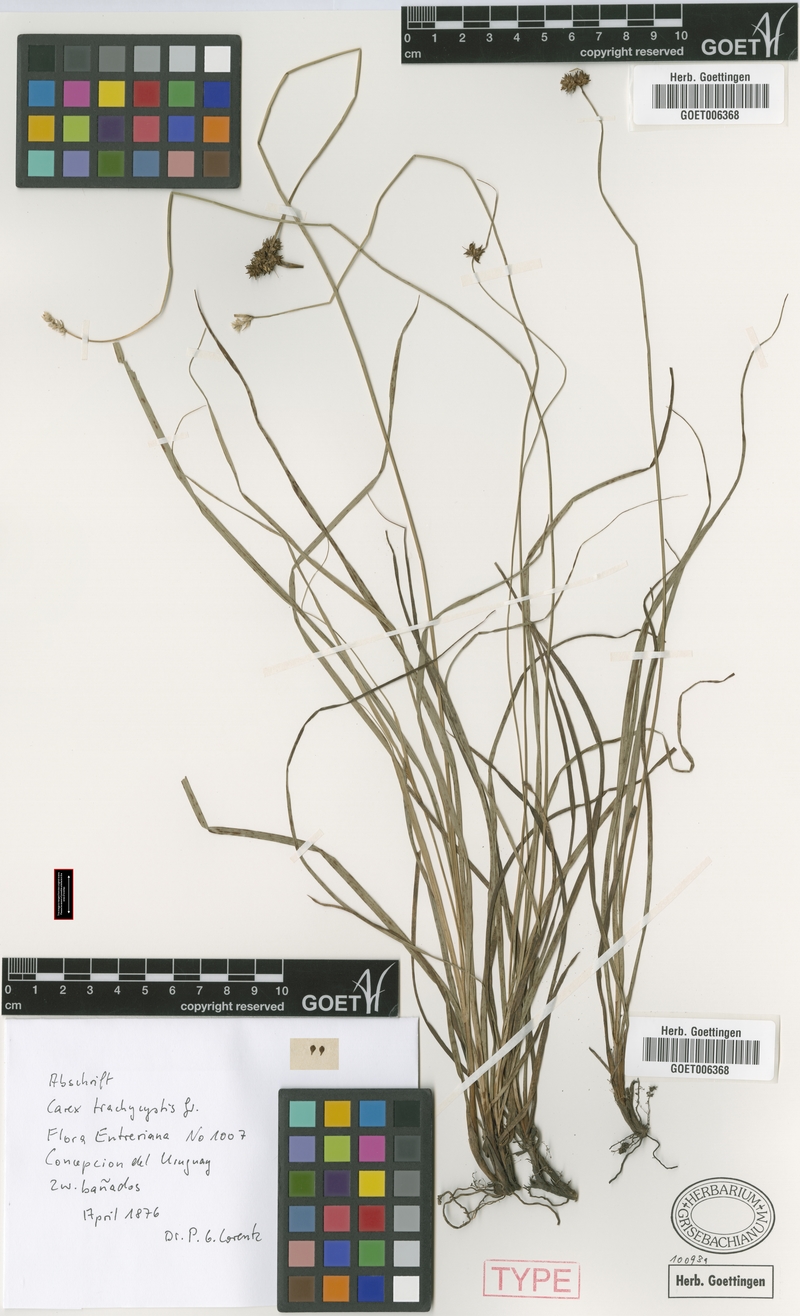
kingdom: Plantae
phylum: Tracheophyta
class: Liliopsida
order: Poales
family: Cyperaceae
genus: Carex
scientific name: Carex bonariensis
